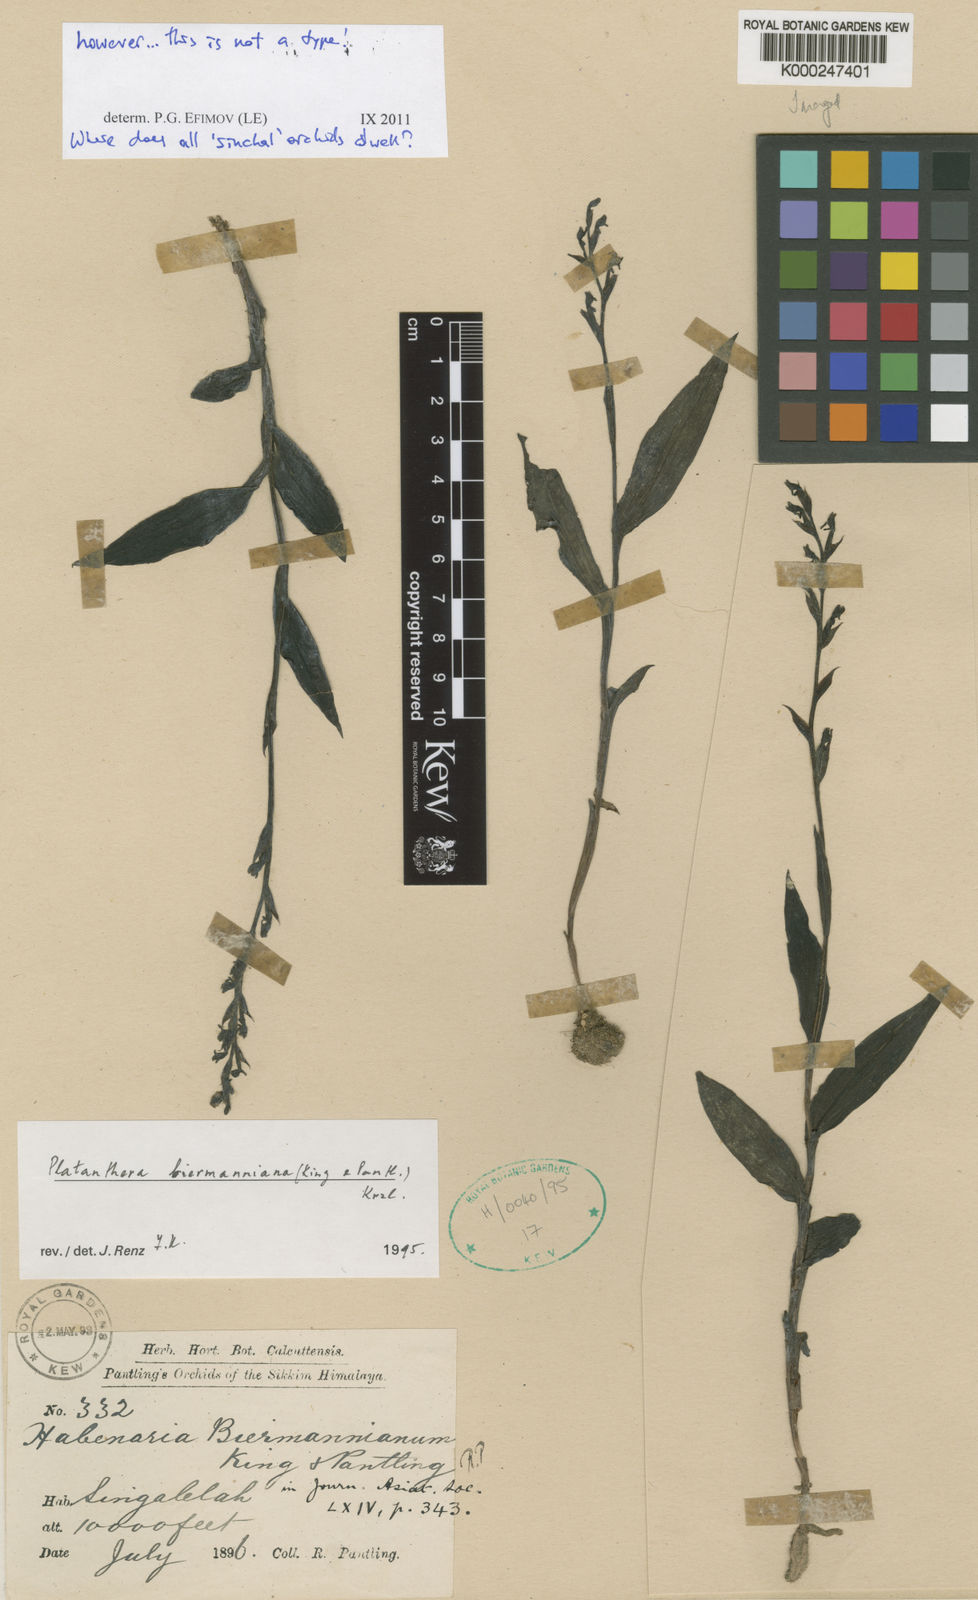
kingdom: Plantae
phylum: Tracheophyta
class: Liliopsida
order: Asparagales
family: Orchidaceae
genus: Peristylus
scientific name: Peristylus biermannianus
